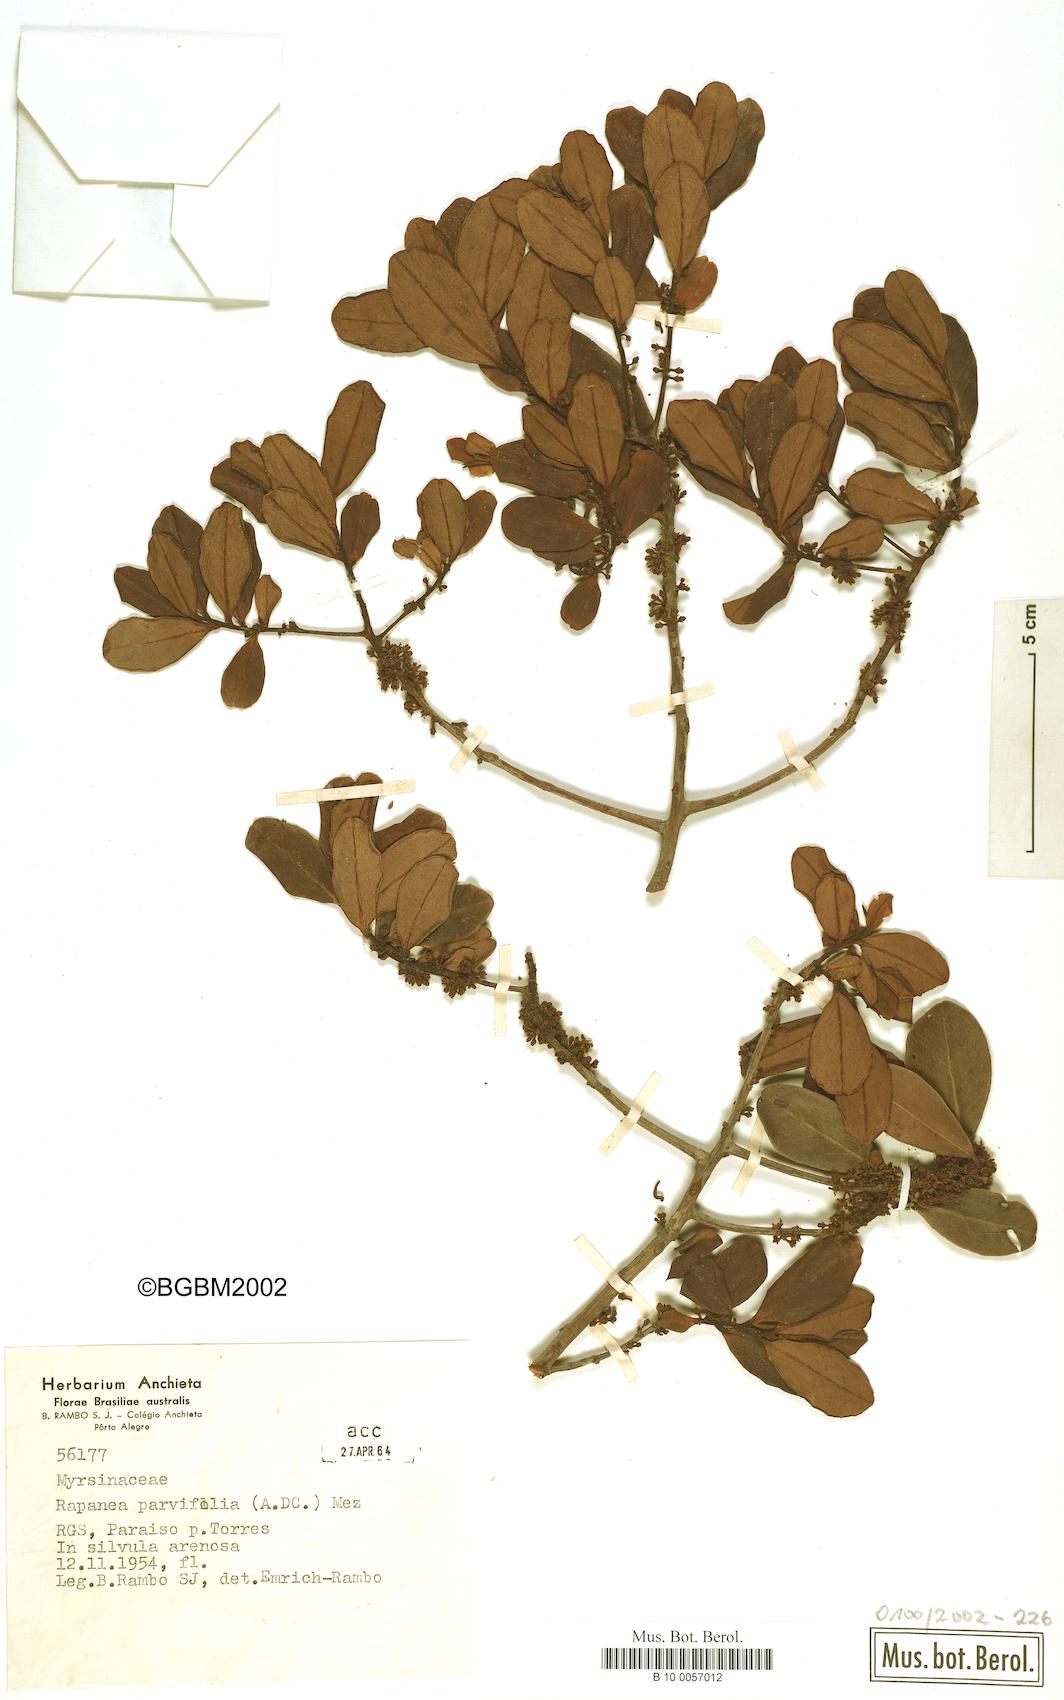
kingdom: Plantae
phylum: Tracheophyta
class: Magnoliopsida
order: Ericales
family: Primulaceae
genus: Myrsine
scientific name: Myrsine parvifolia
